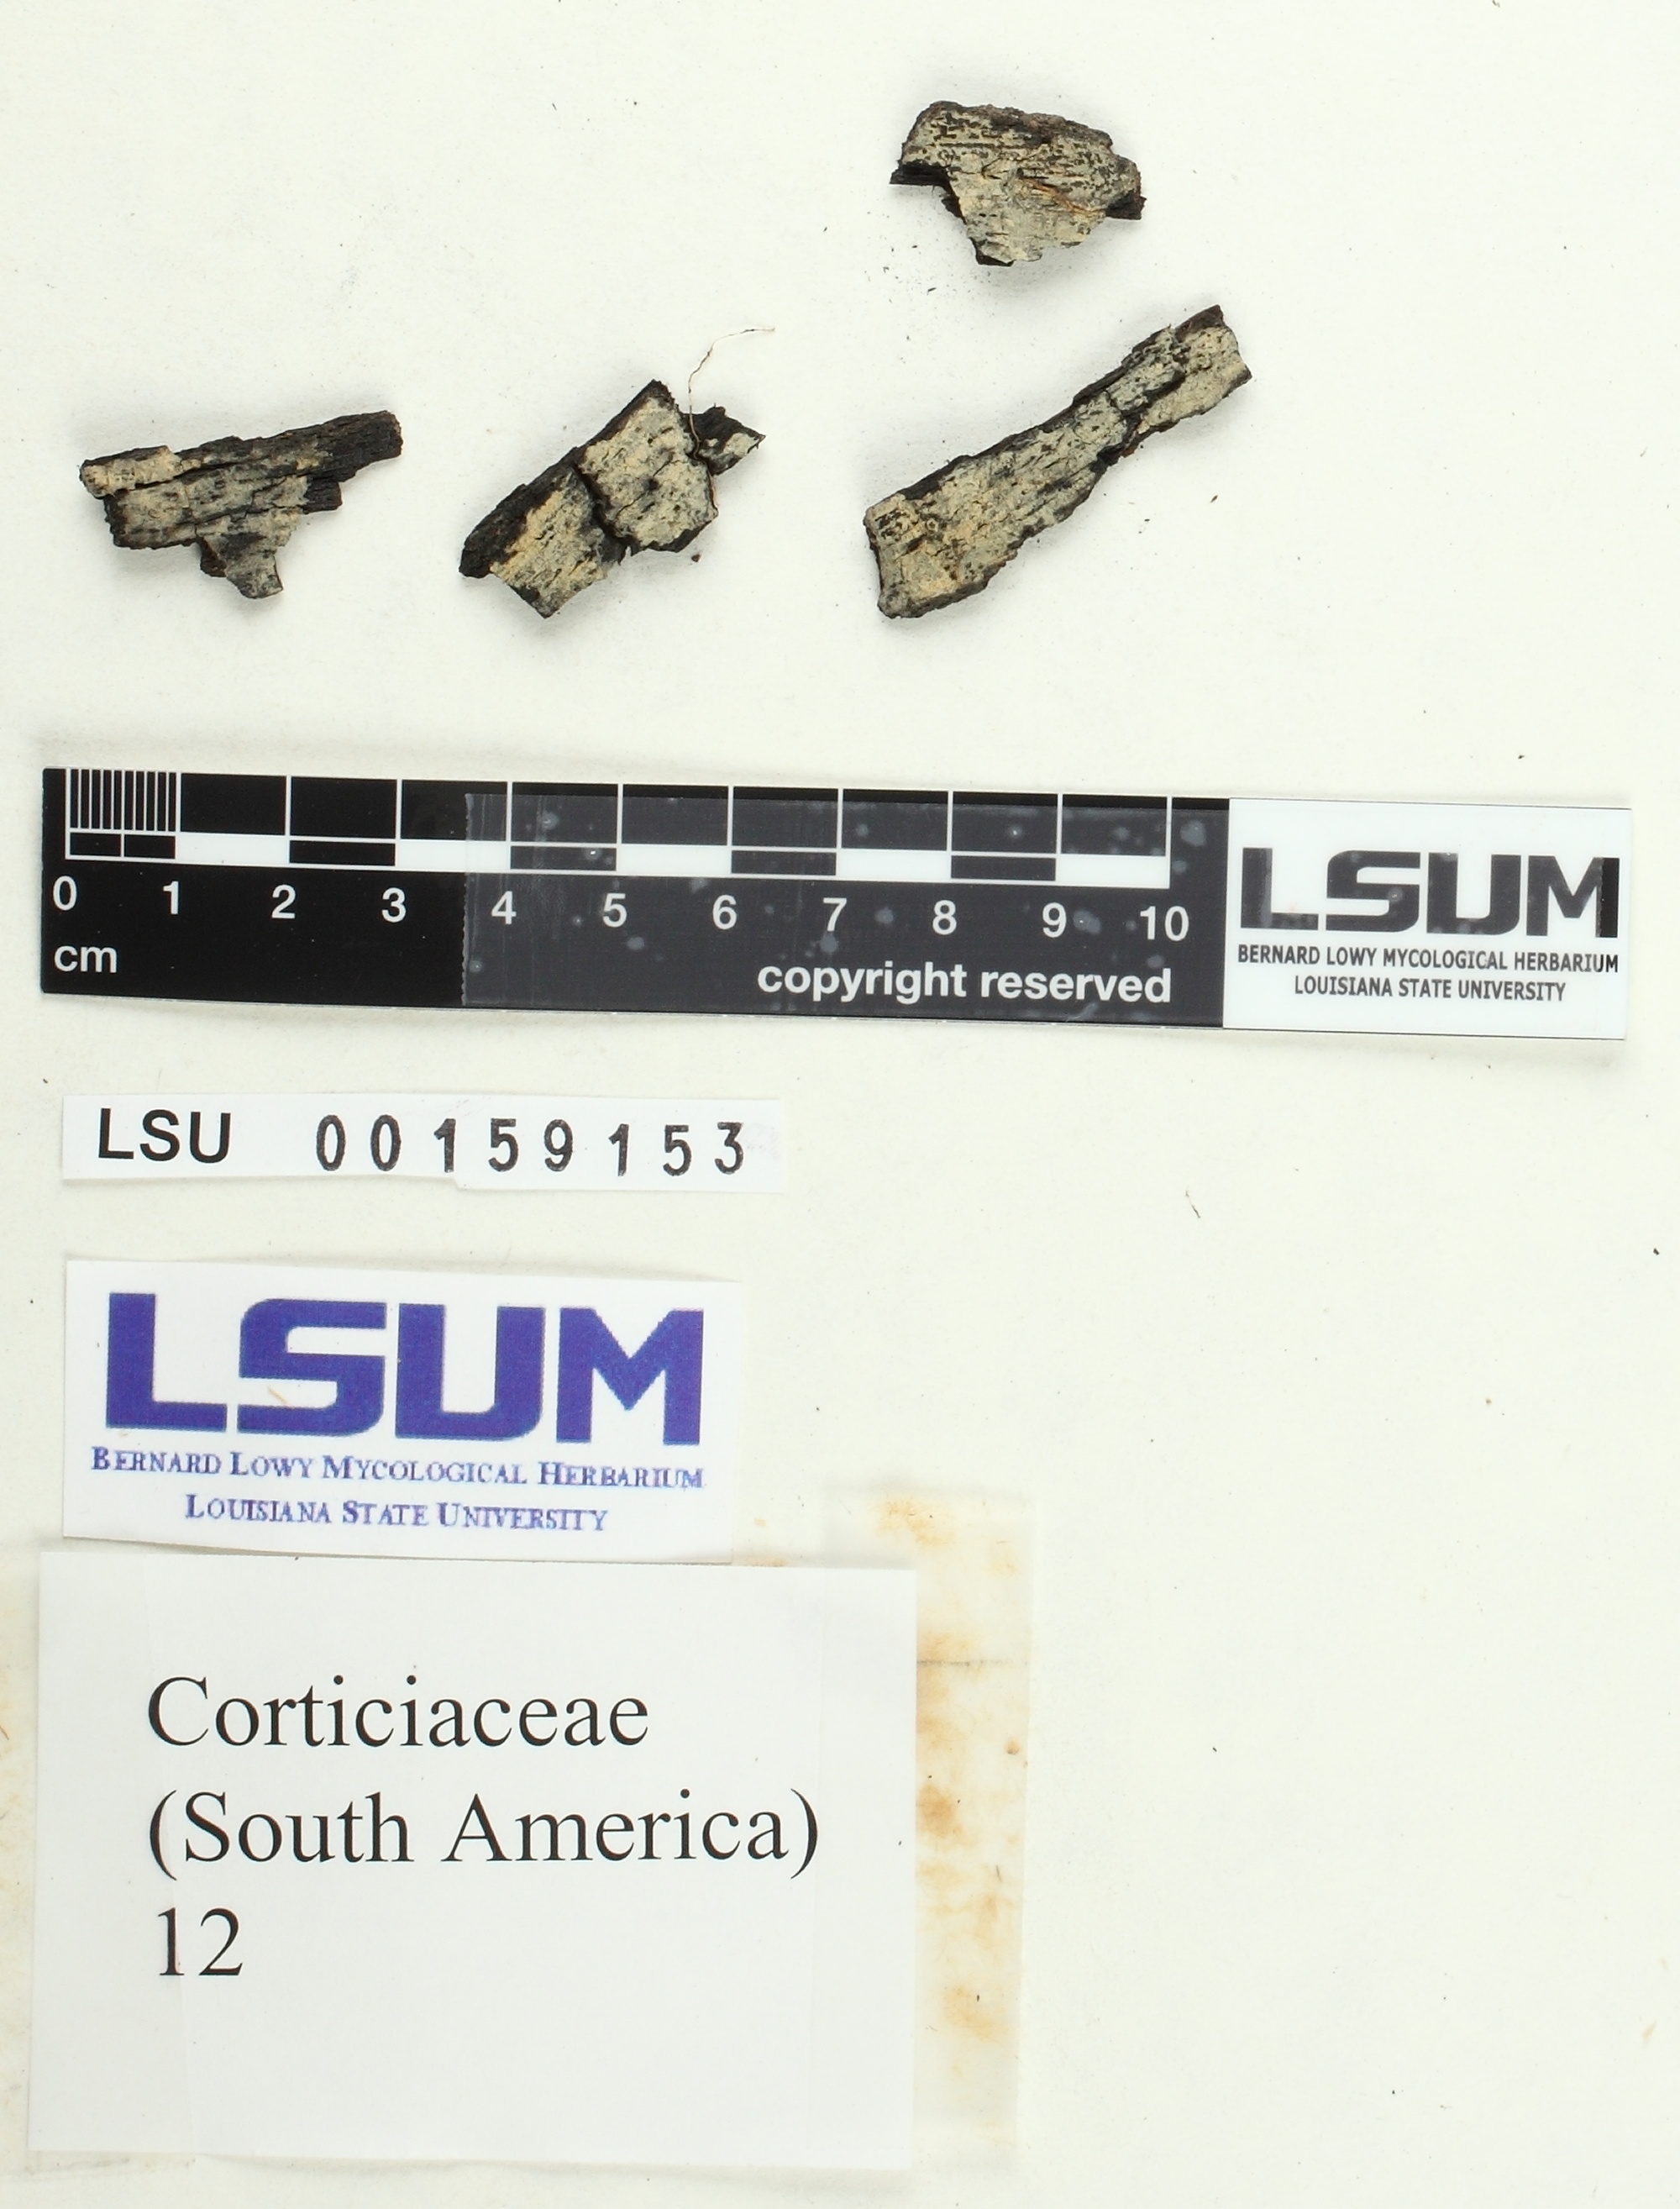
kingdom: Fungi
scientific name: Fungi
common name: Fungi
